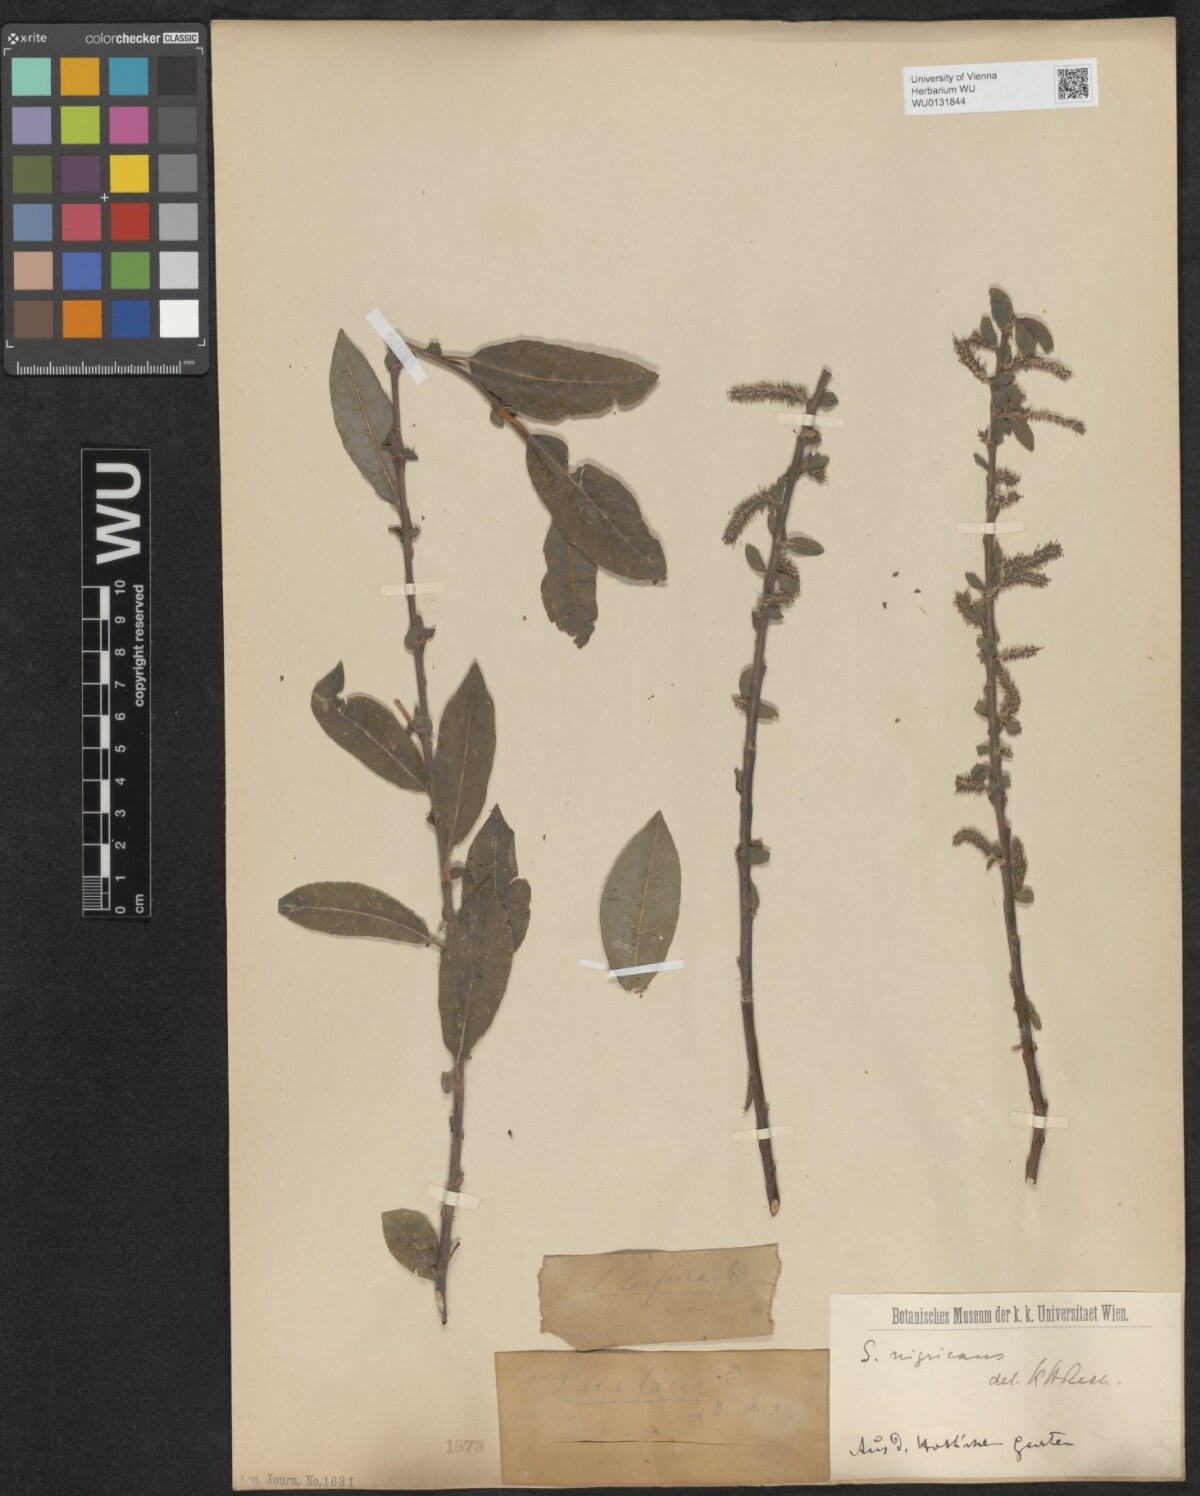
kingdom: Plantae
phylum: Tracheophyta
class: Magnoliopsida
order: Malpighiales
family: Salicaceae
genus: Salix
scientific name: Salix myrsinifolia
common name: Dark-leaved willow
